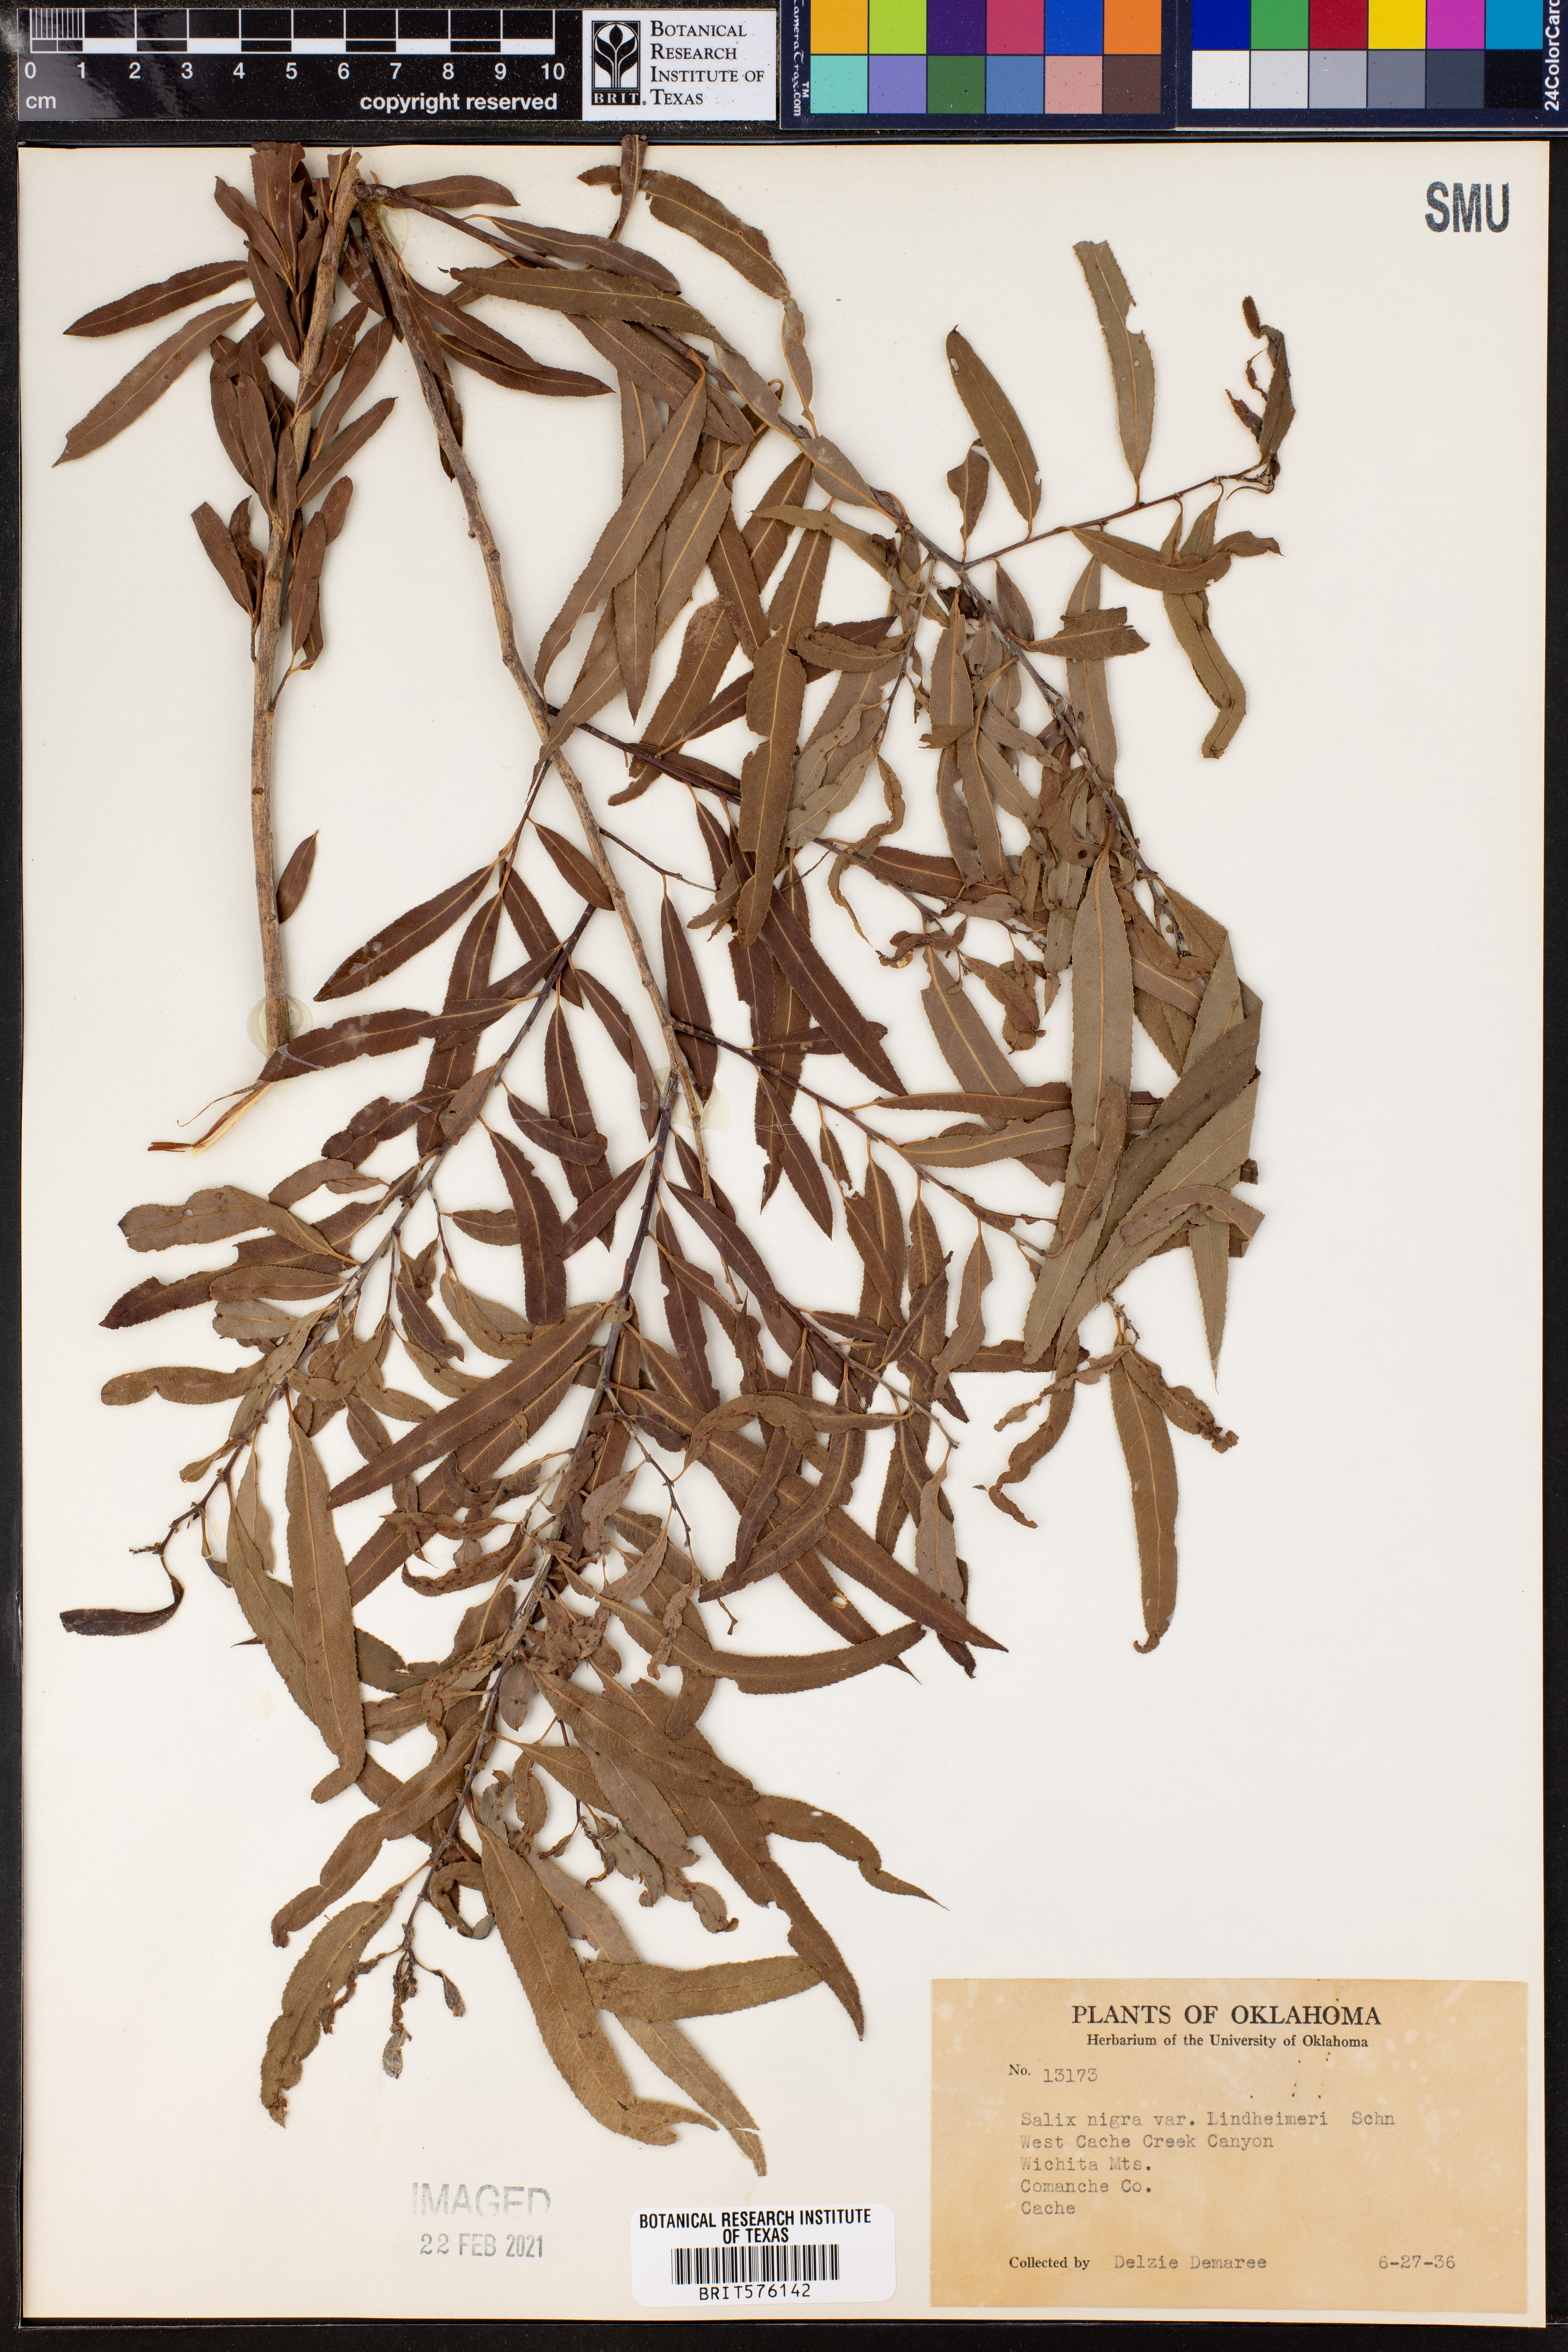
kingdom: Plantae
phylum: Tracheophyta
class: Magnoliopsida
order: Malpighiales
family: Salicaceae
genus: Salix
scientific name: Salix nigra
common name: Black willow
